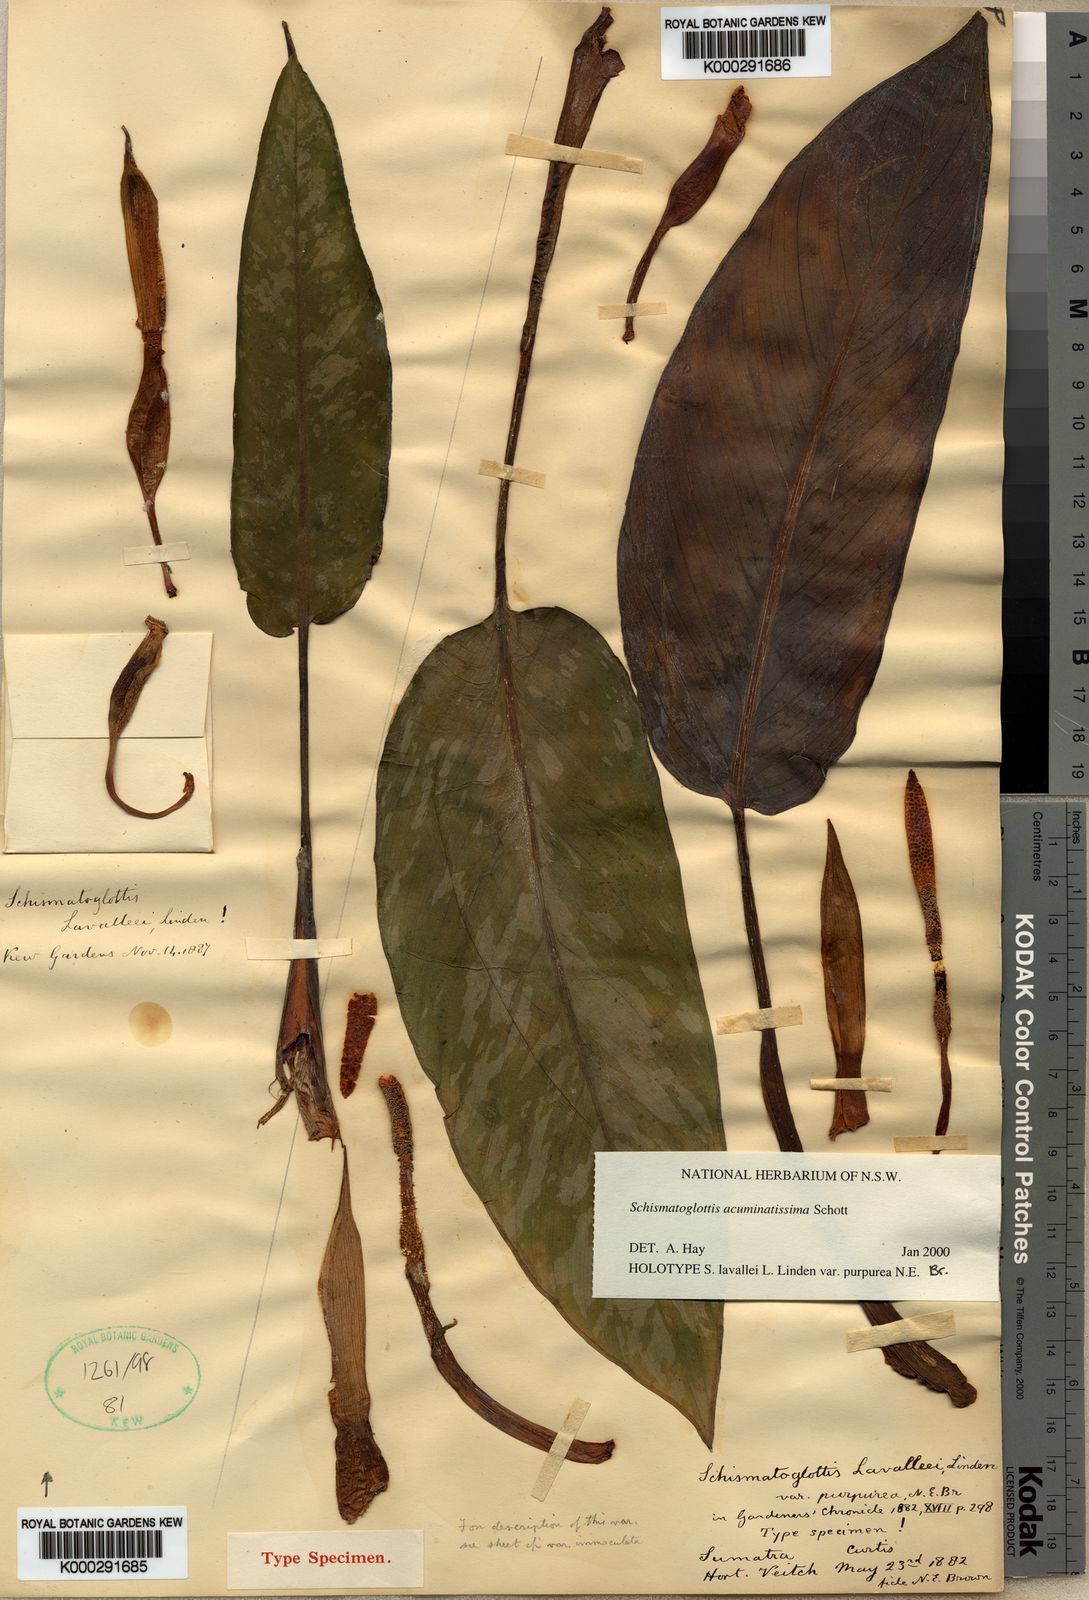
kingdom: Plantae
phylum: Tracheophyta
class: Liliopsida
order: Alismatales
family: Araceae
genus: Apoballis
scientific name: Apoballis acuminatissima
